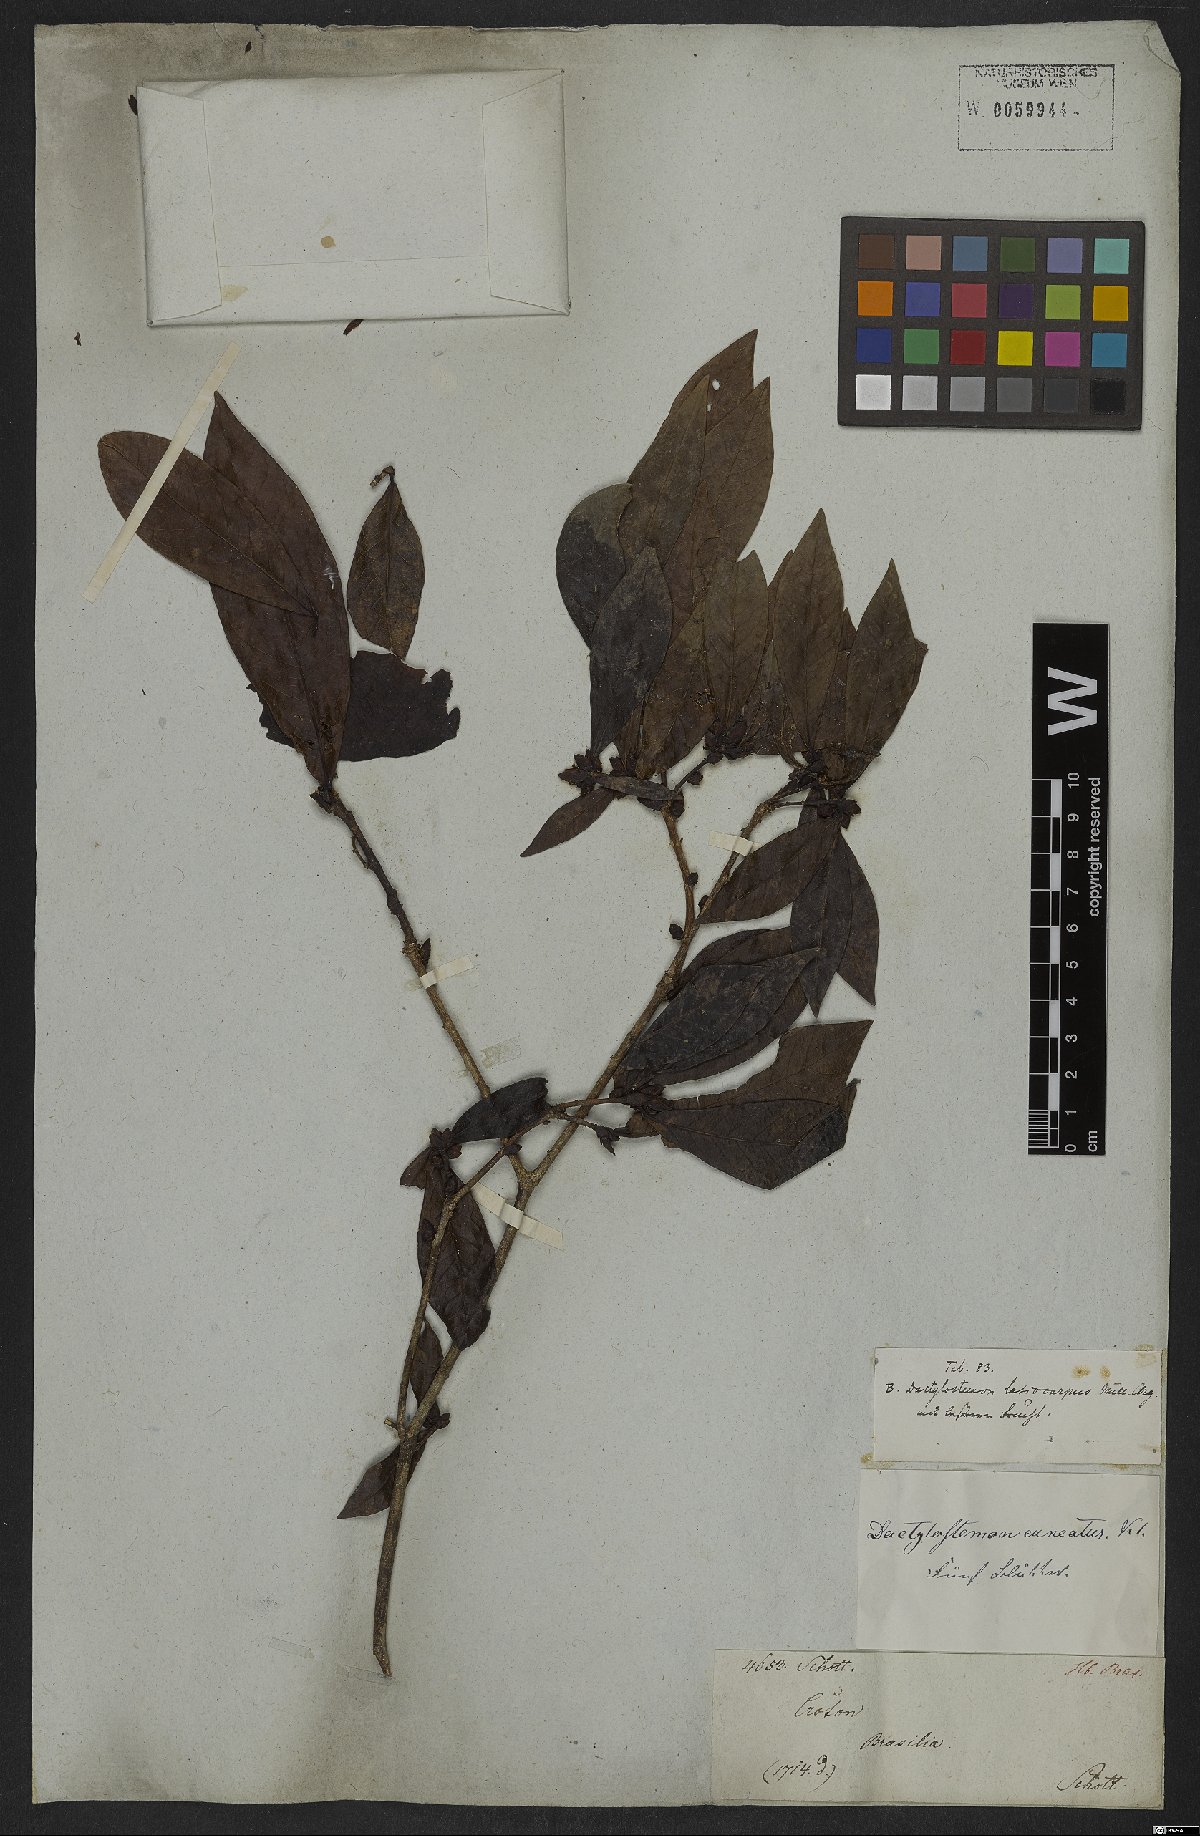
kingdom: Plantae
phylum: Tracheophyta
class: Magnoliopsida
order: Malpighiales
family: Euphorbiaceae
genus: Actinostemon
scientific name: Actinostemon lasiocarpus
